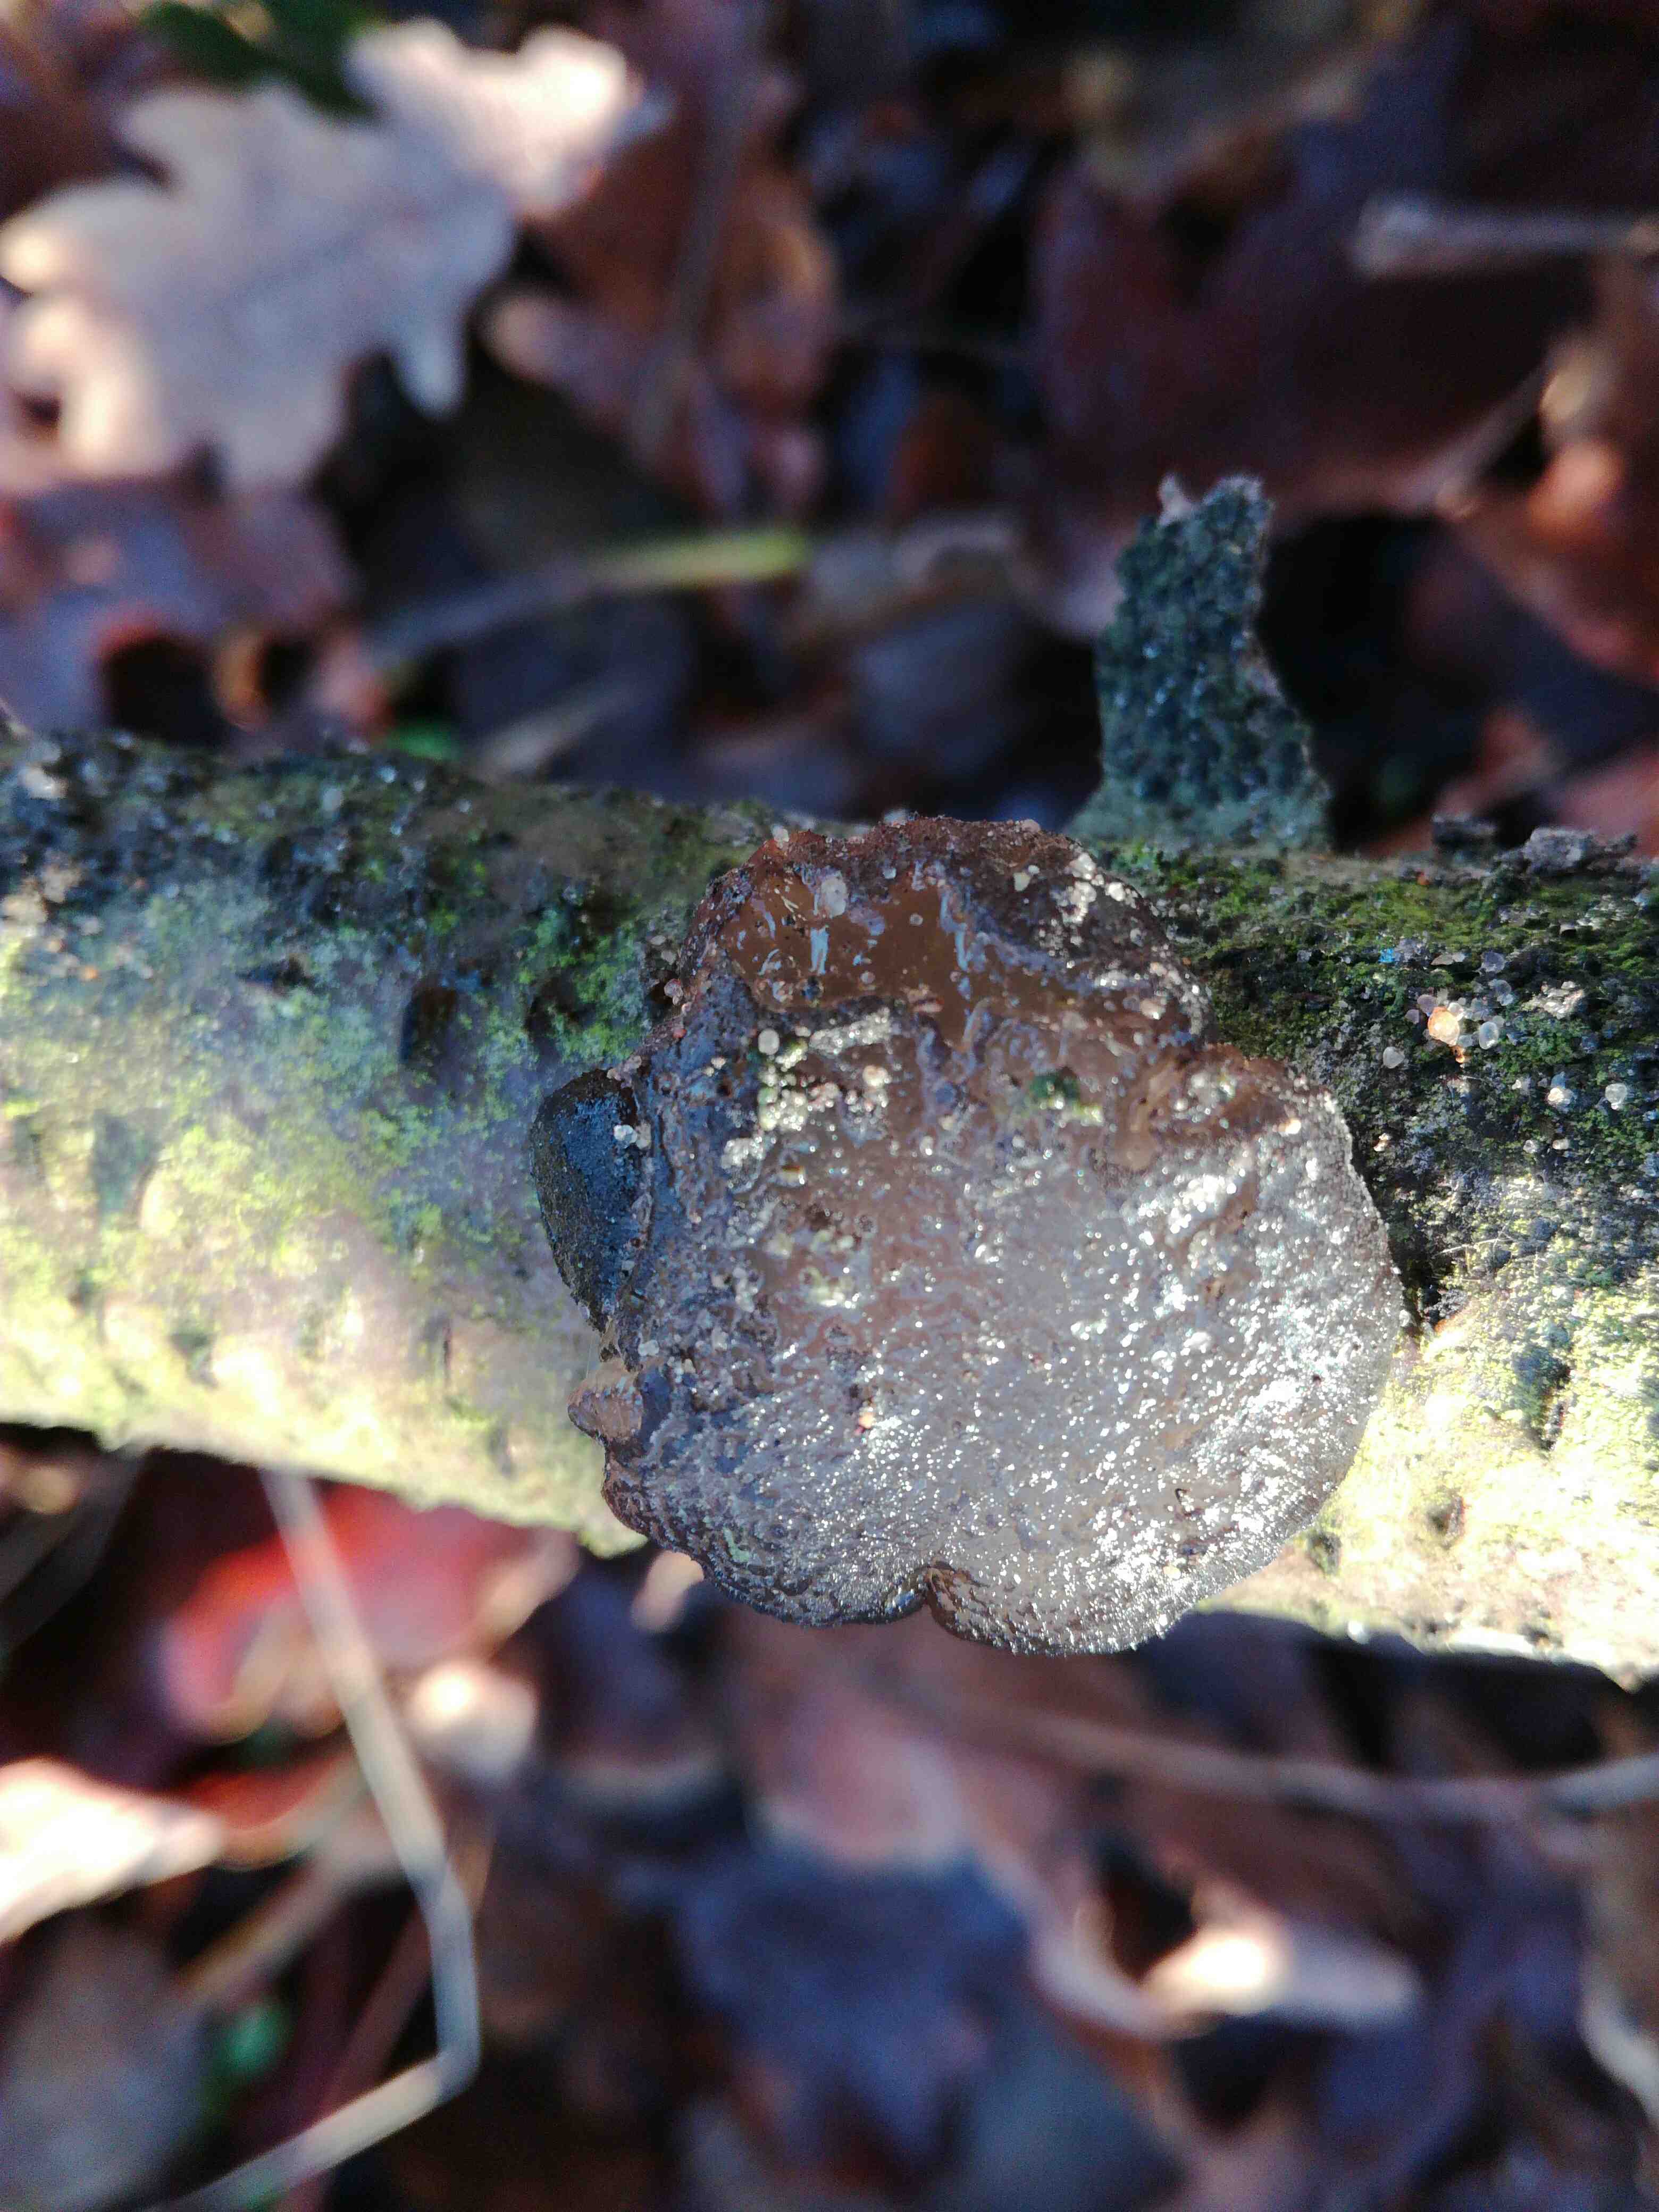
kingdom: Fungi
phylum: Basidiomycota
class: Agaricomycetes
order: Auriculariales
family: Auriculariaceae
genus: Exidia
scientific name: Exidia glandulosa
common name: ege-bævretop
